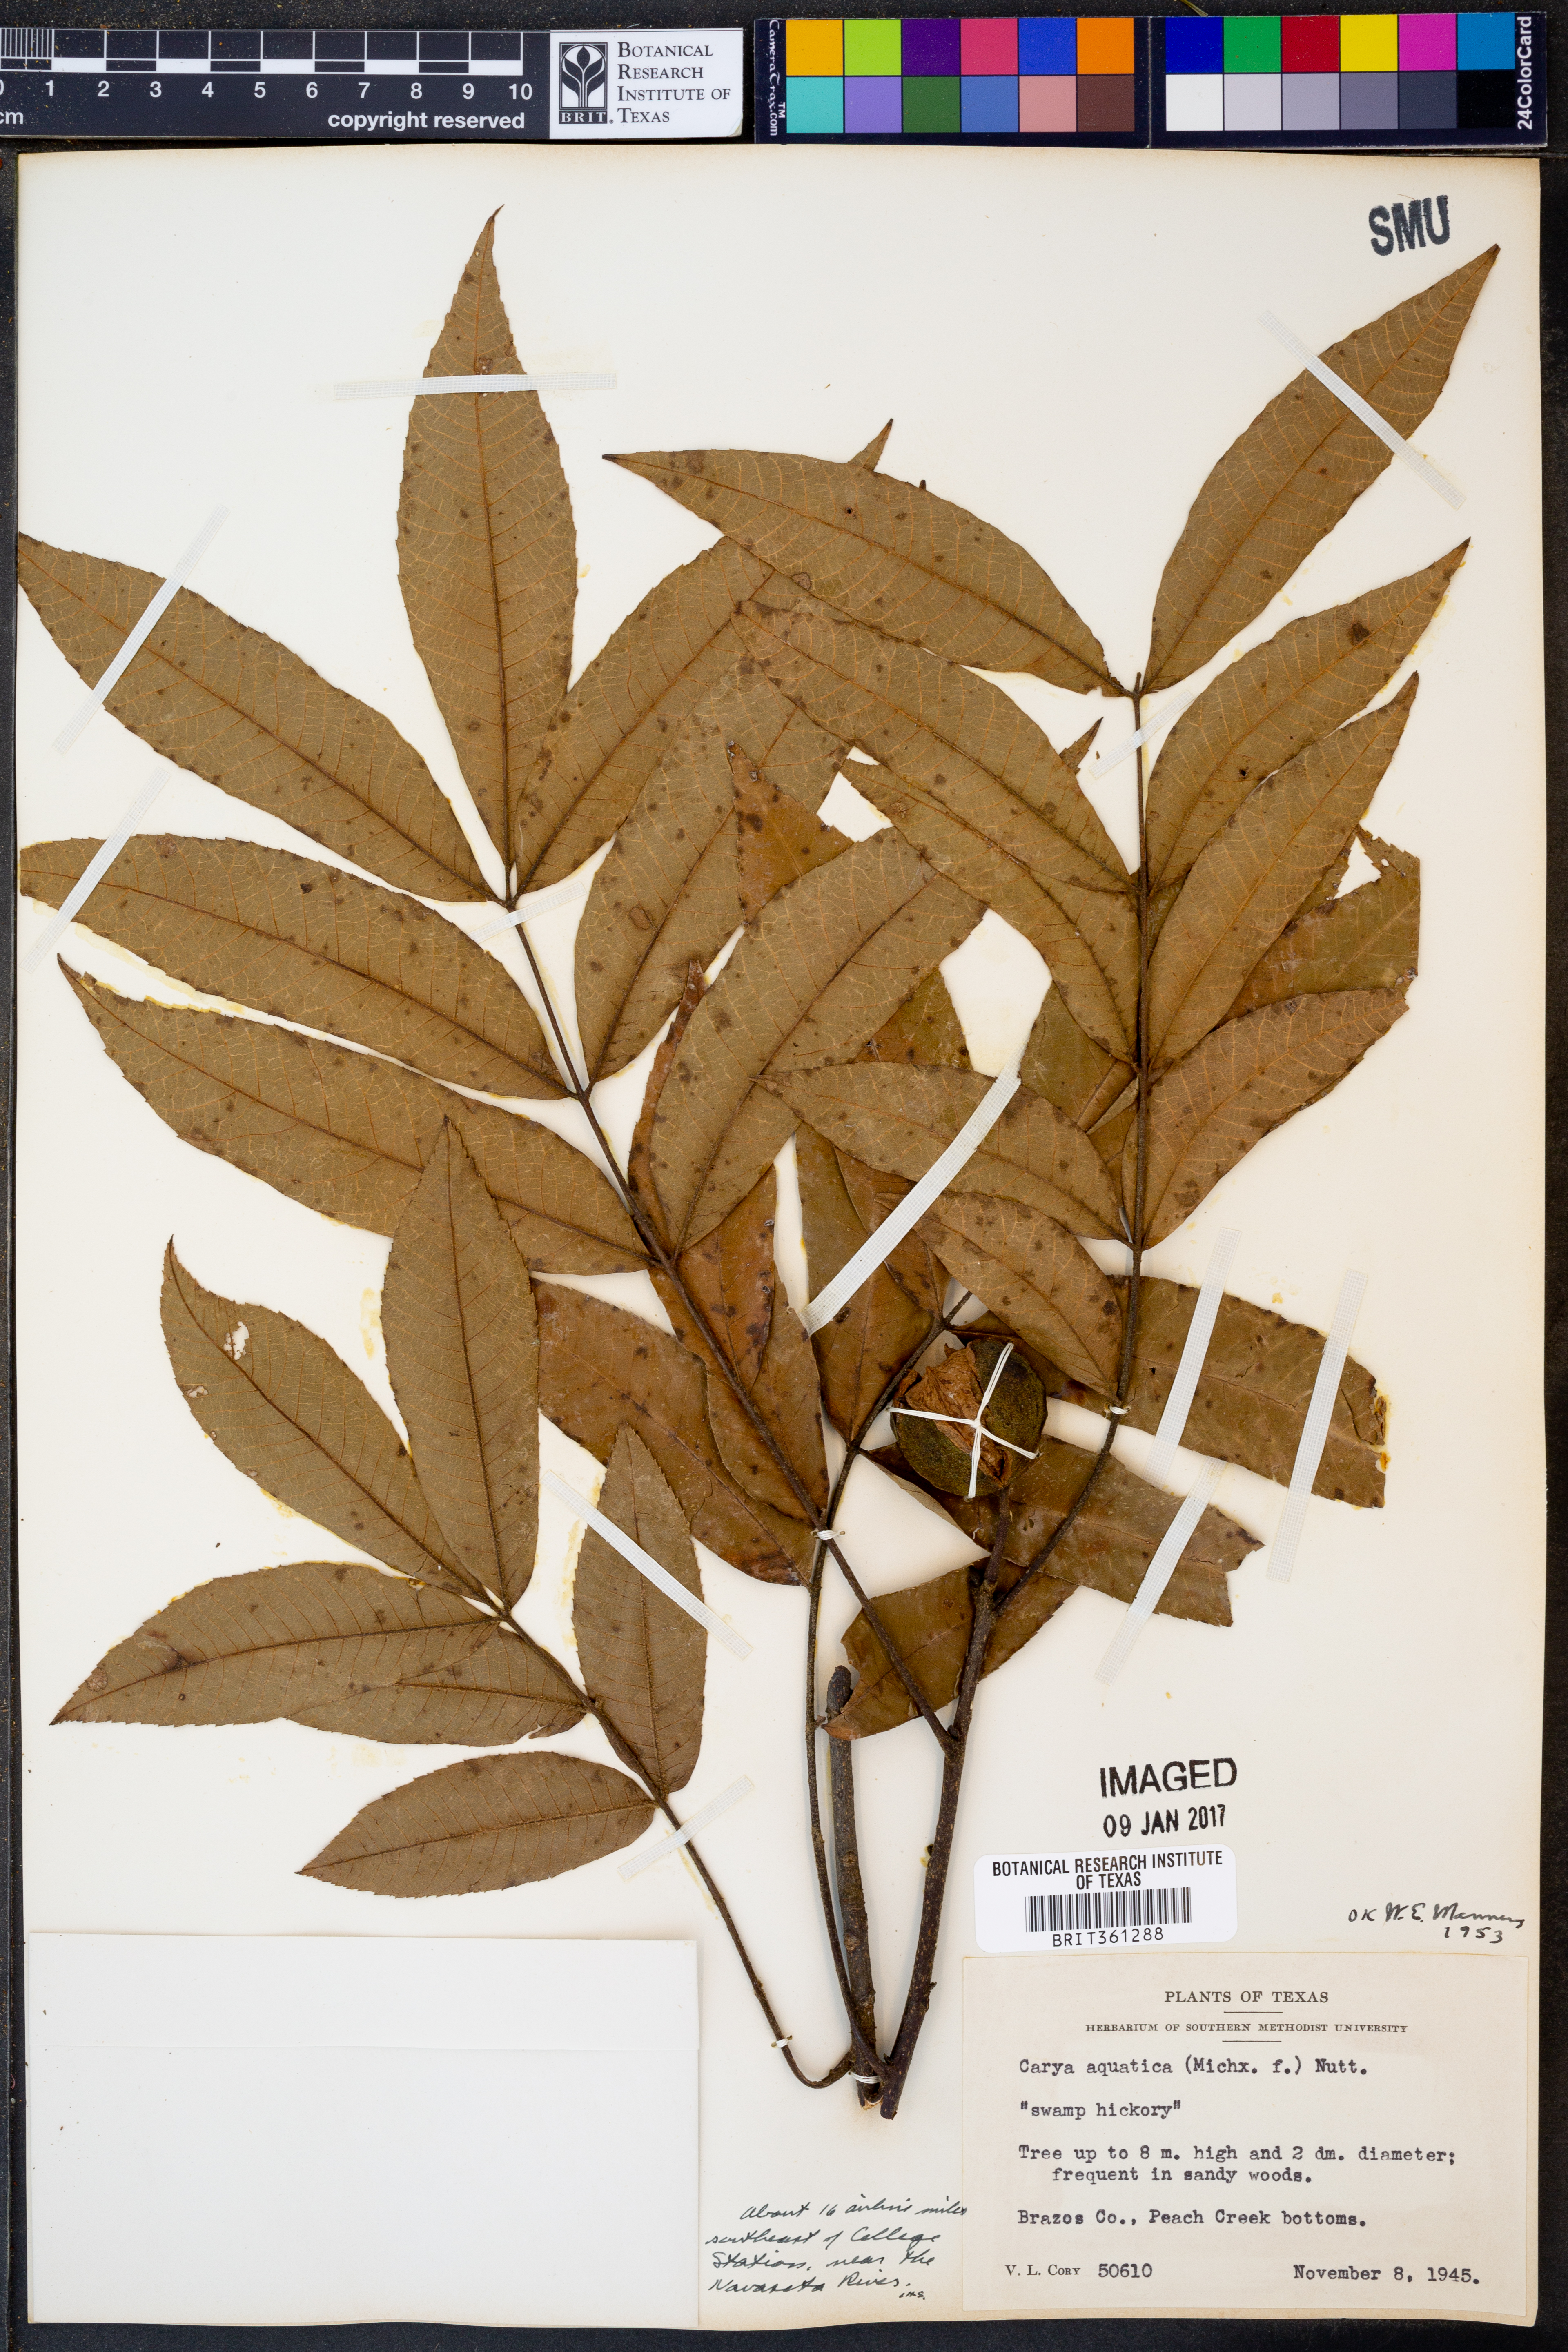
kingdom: Plantae
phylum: Tracheophyta
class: Magnoliopsida
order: Fagales
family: Juglandaceae
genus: Carya
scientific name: Carya aquatica
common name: Water hickory
